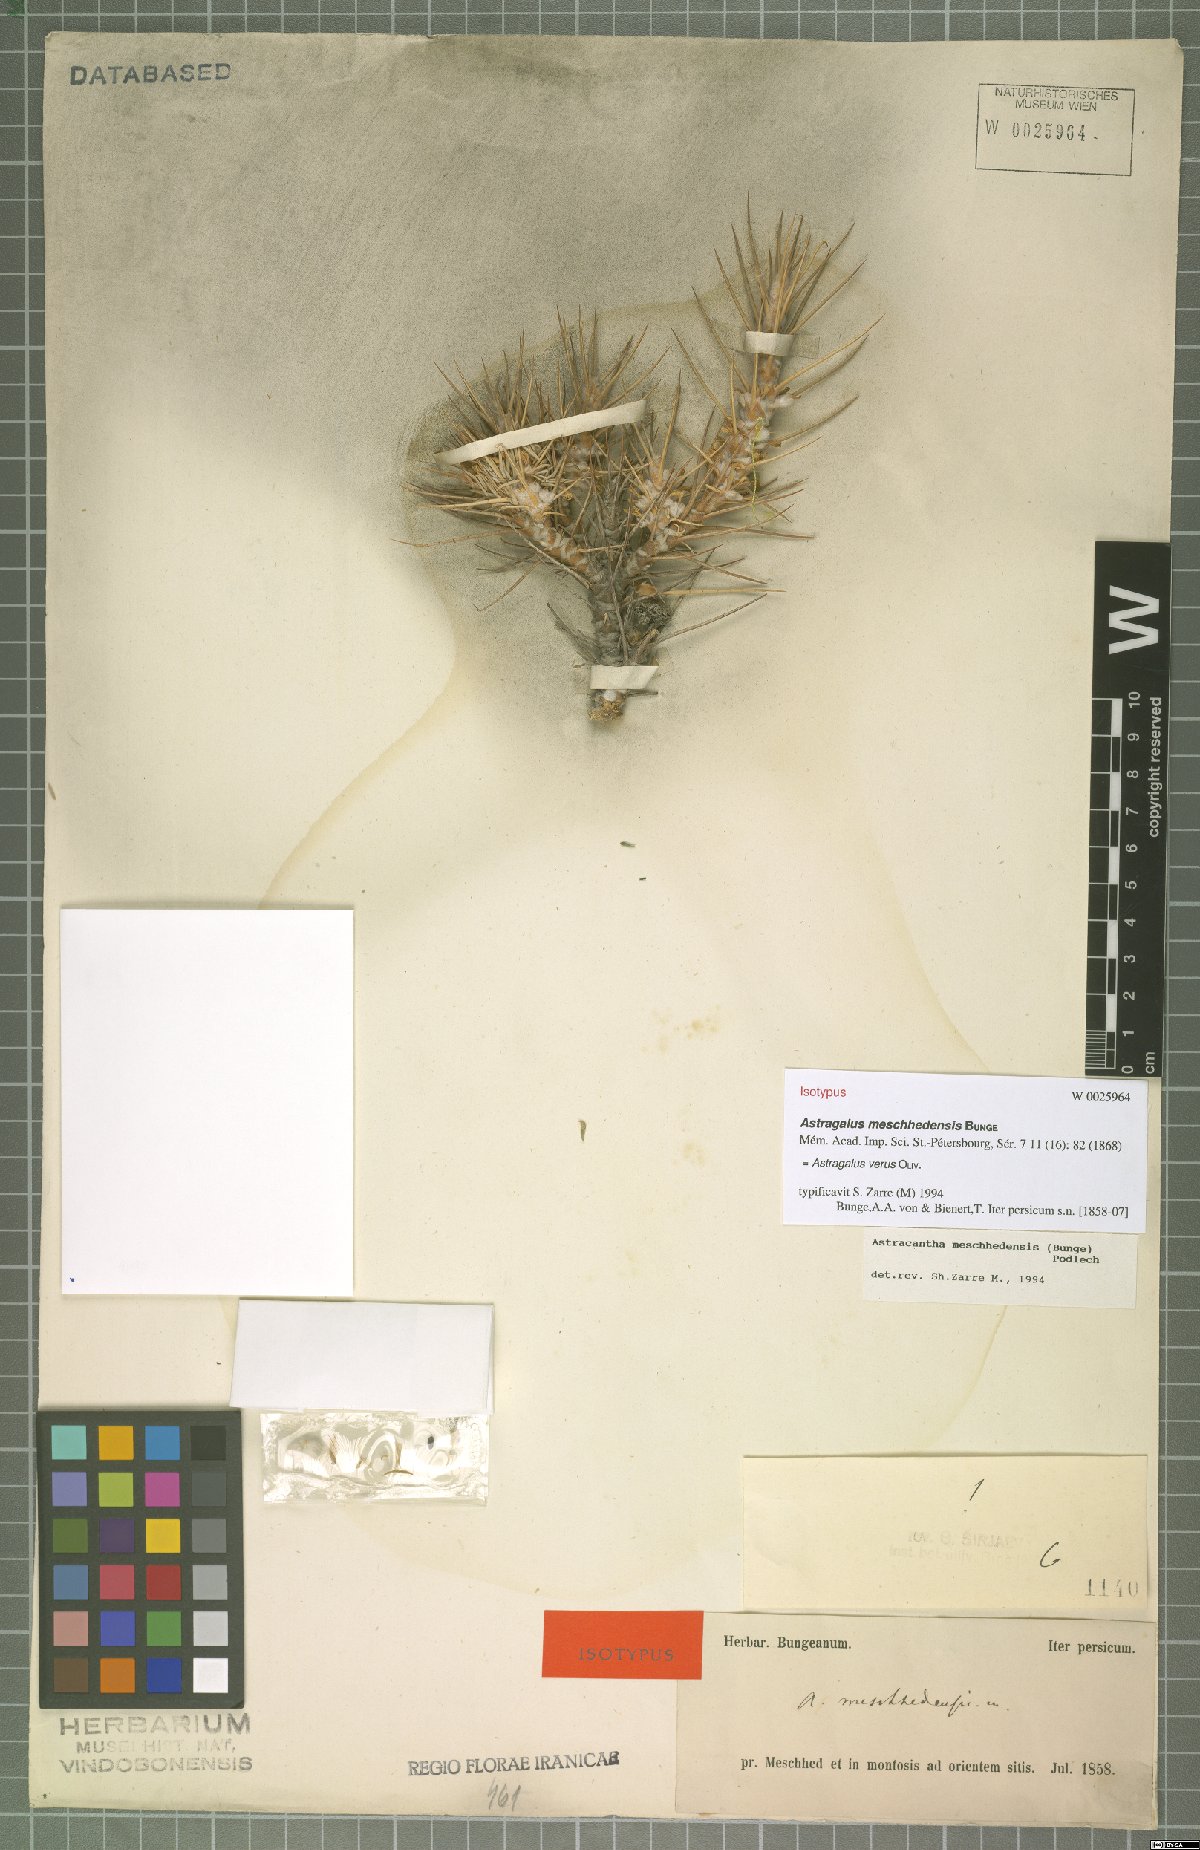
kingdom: Plantae
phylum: Tracheophyta
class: Magnoliopsida
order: Fabales
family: Fabaceae
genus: Astragalus
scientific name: Astragalus verus
